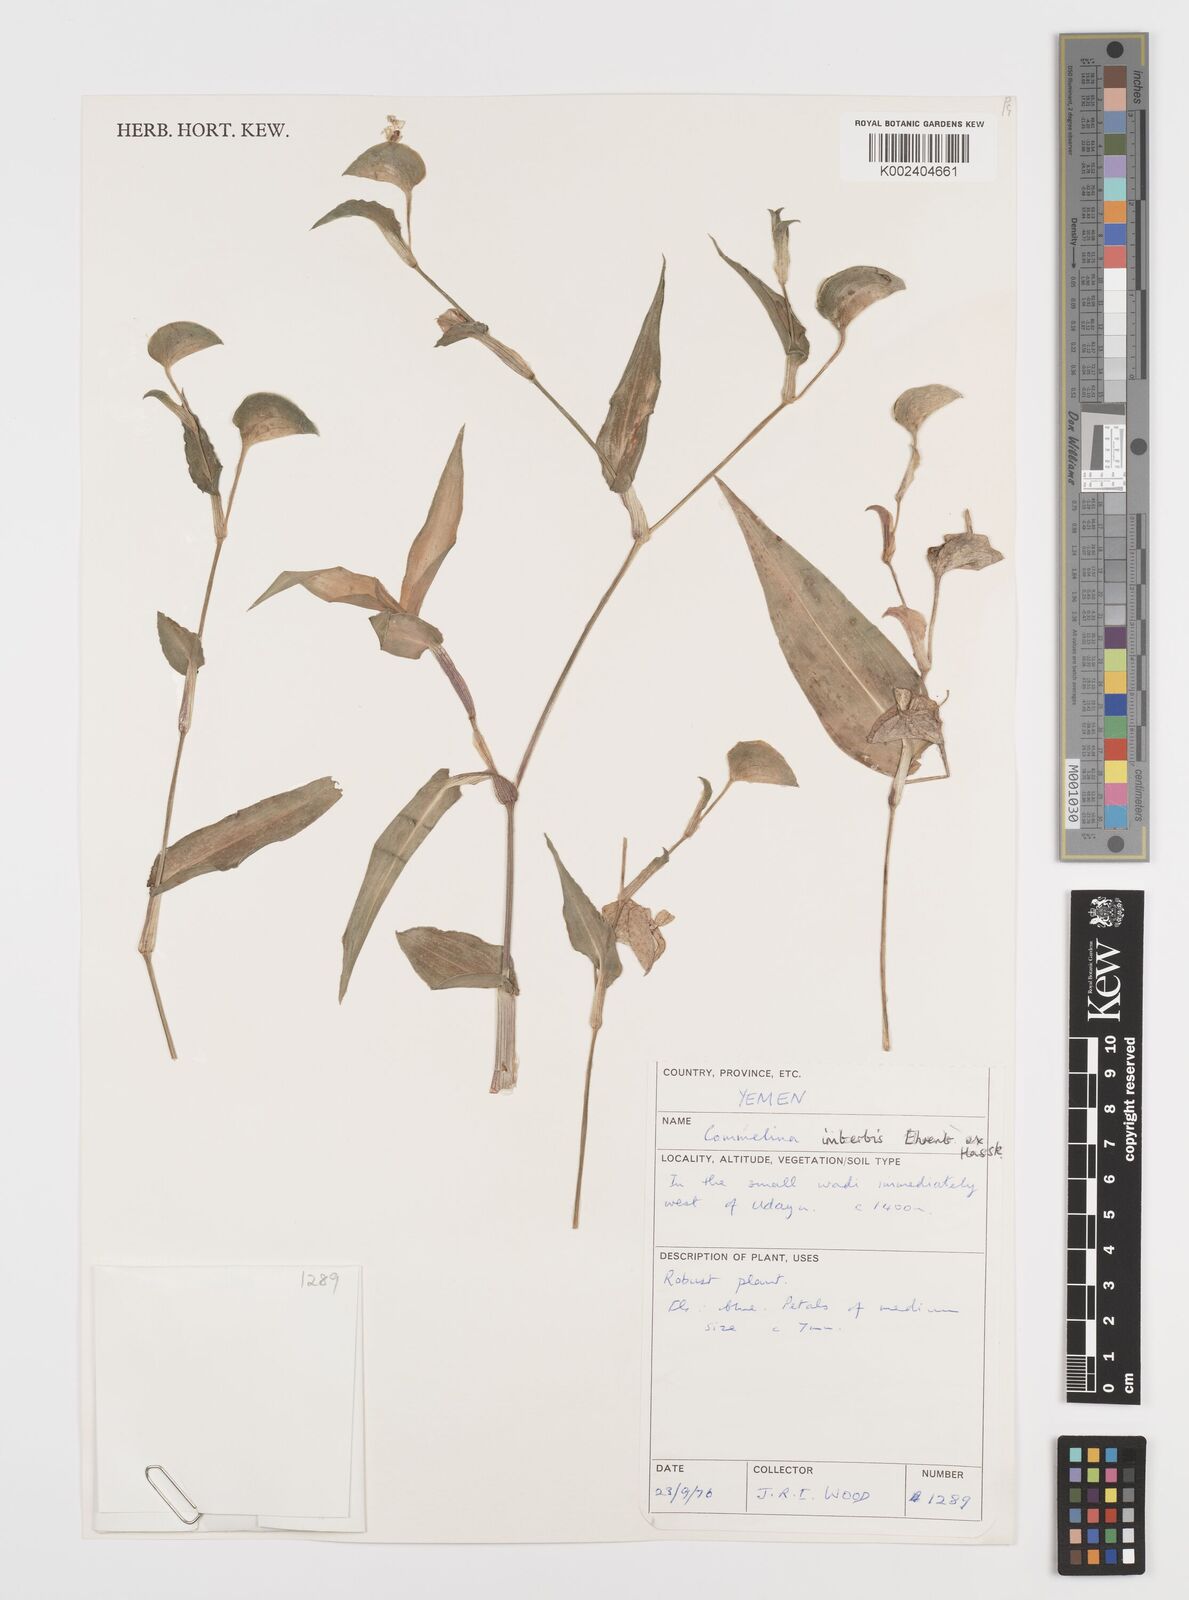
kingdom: Plantae
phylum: Tracheophyta
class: Liliopsida
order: Commelinales
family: Commelinaceae
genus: Commelina
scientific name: Commelina imberbis
